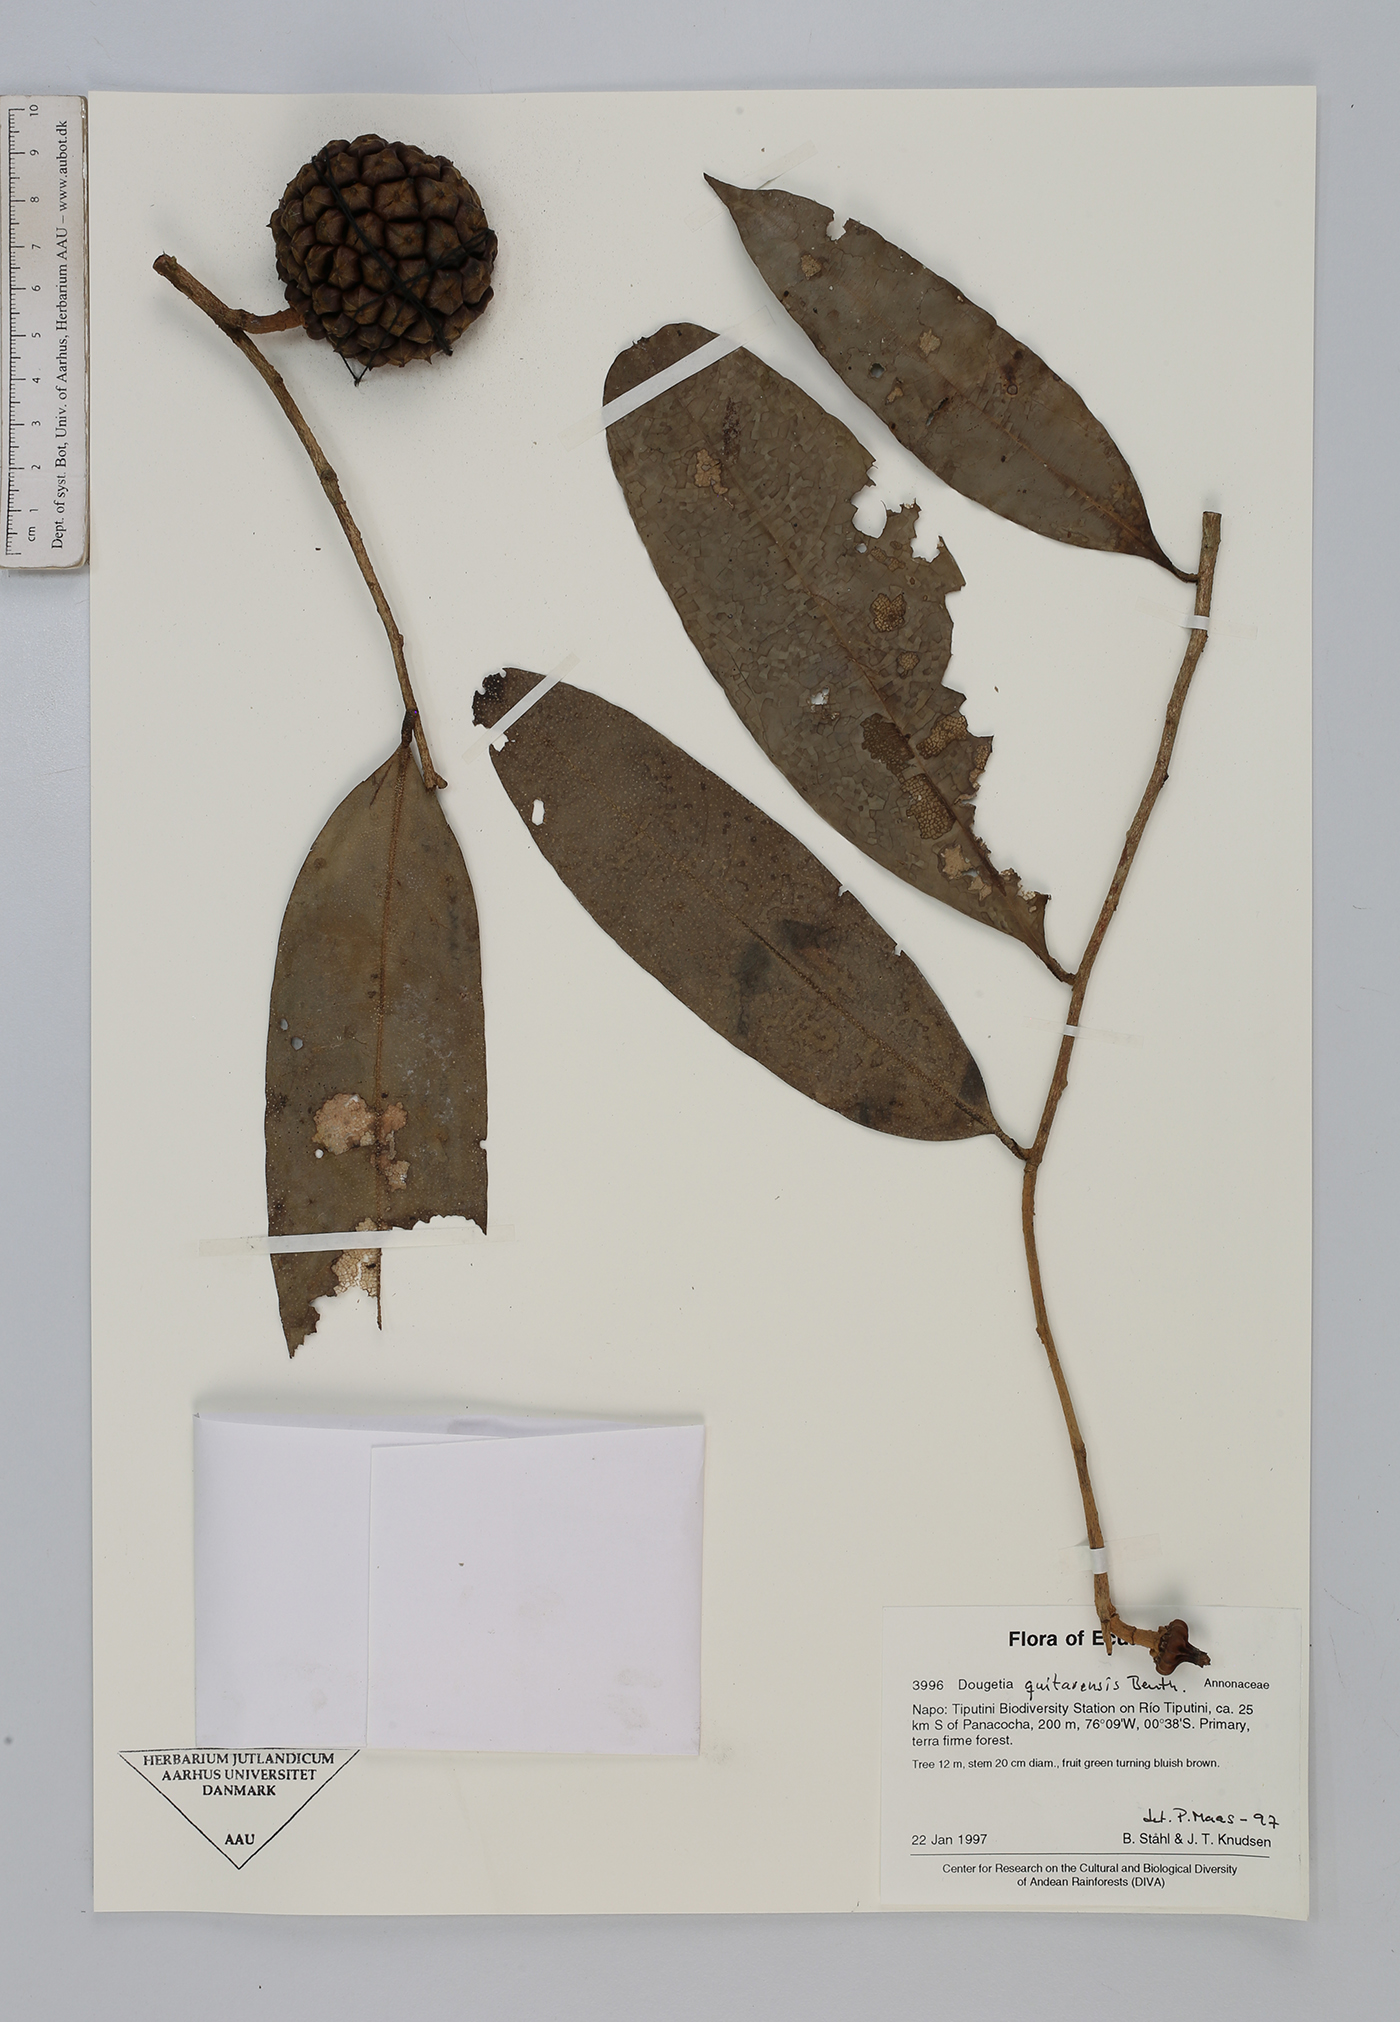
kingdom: Plantae
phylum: Tracheophyta
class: Magnoliopsida
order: Magnoliales
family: Annonaceae
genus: Duguetia
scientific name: Duguetia quitarensis
